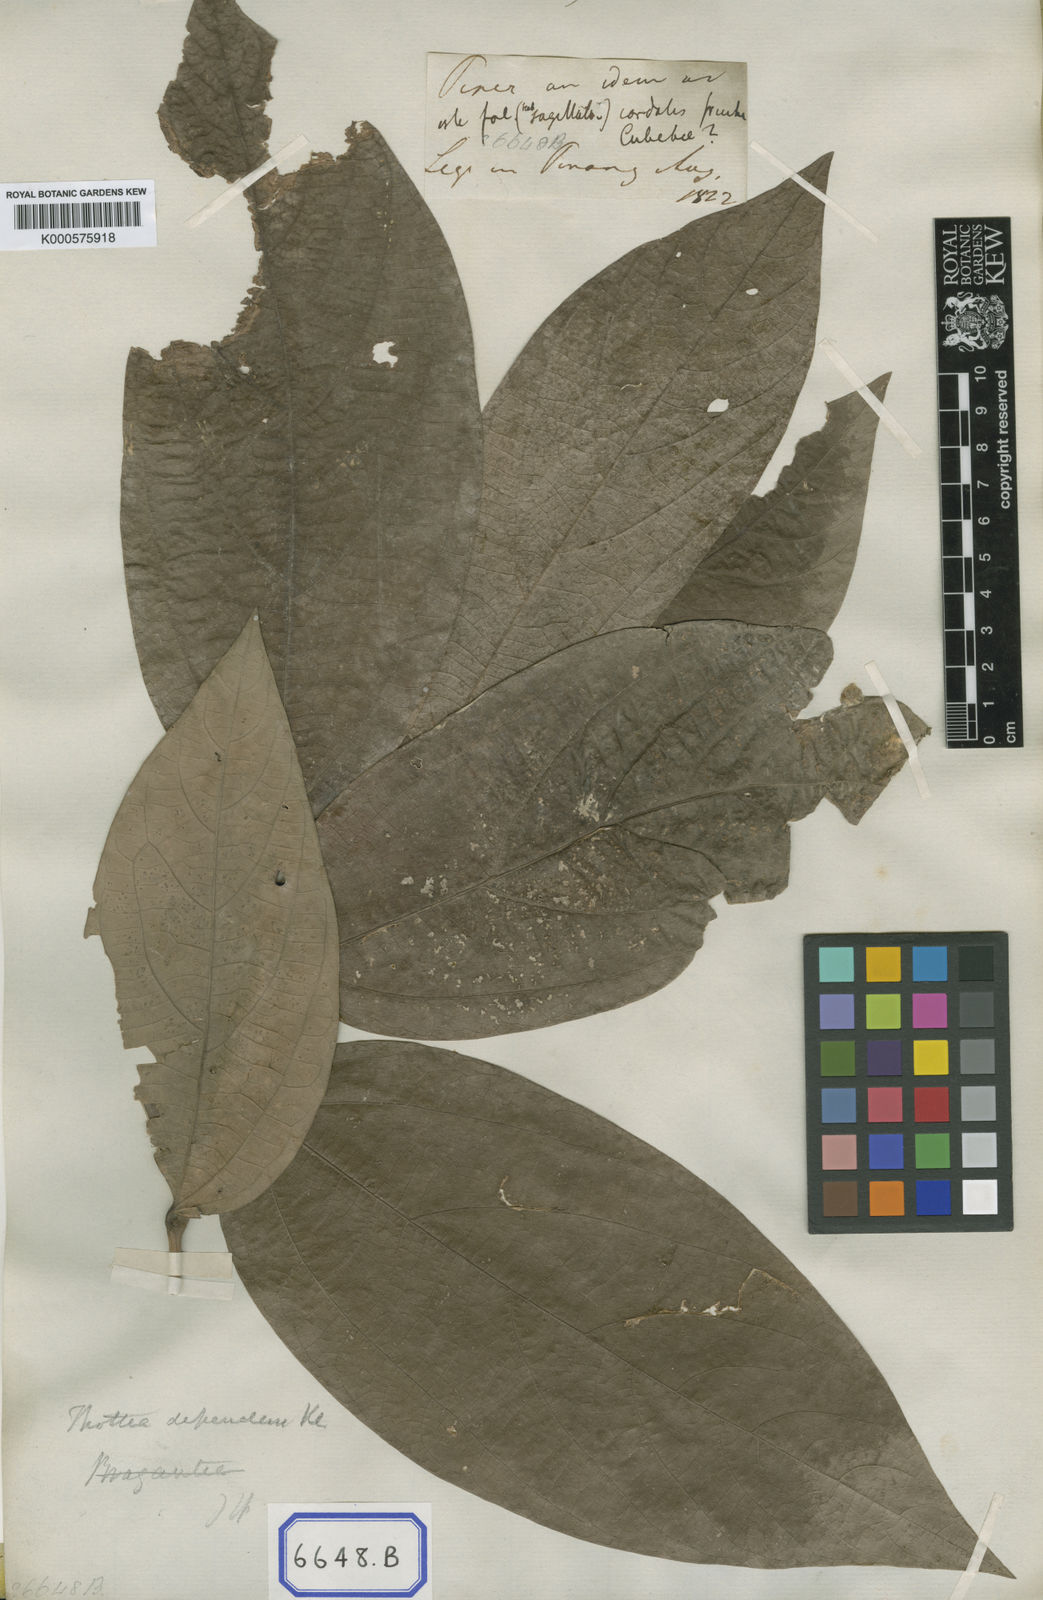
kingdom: Plantae
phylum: Tracheophyta
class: Magnoliopsida
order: Piperales
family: Piperaceae
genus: Piper
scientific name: Piper macropiper
